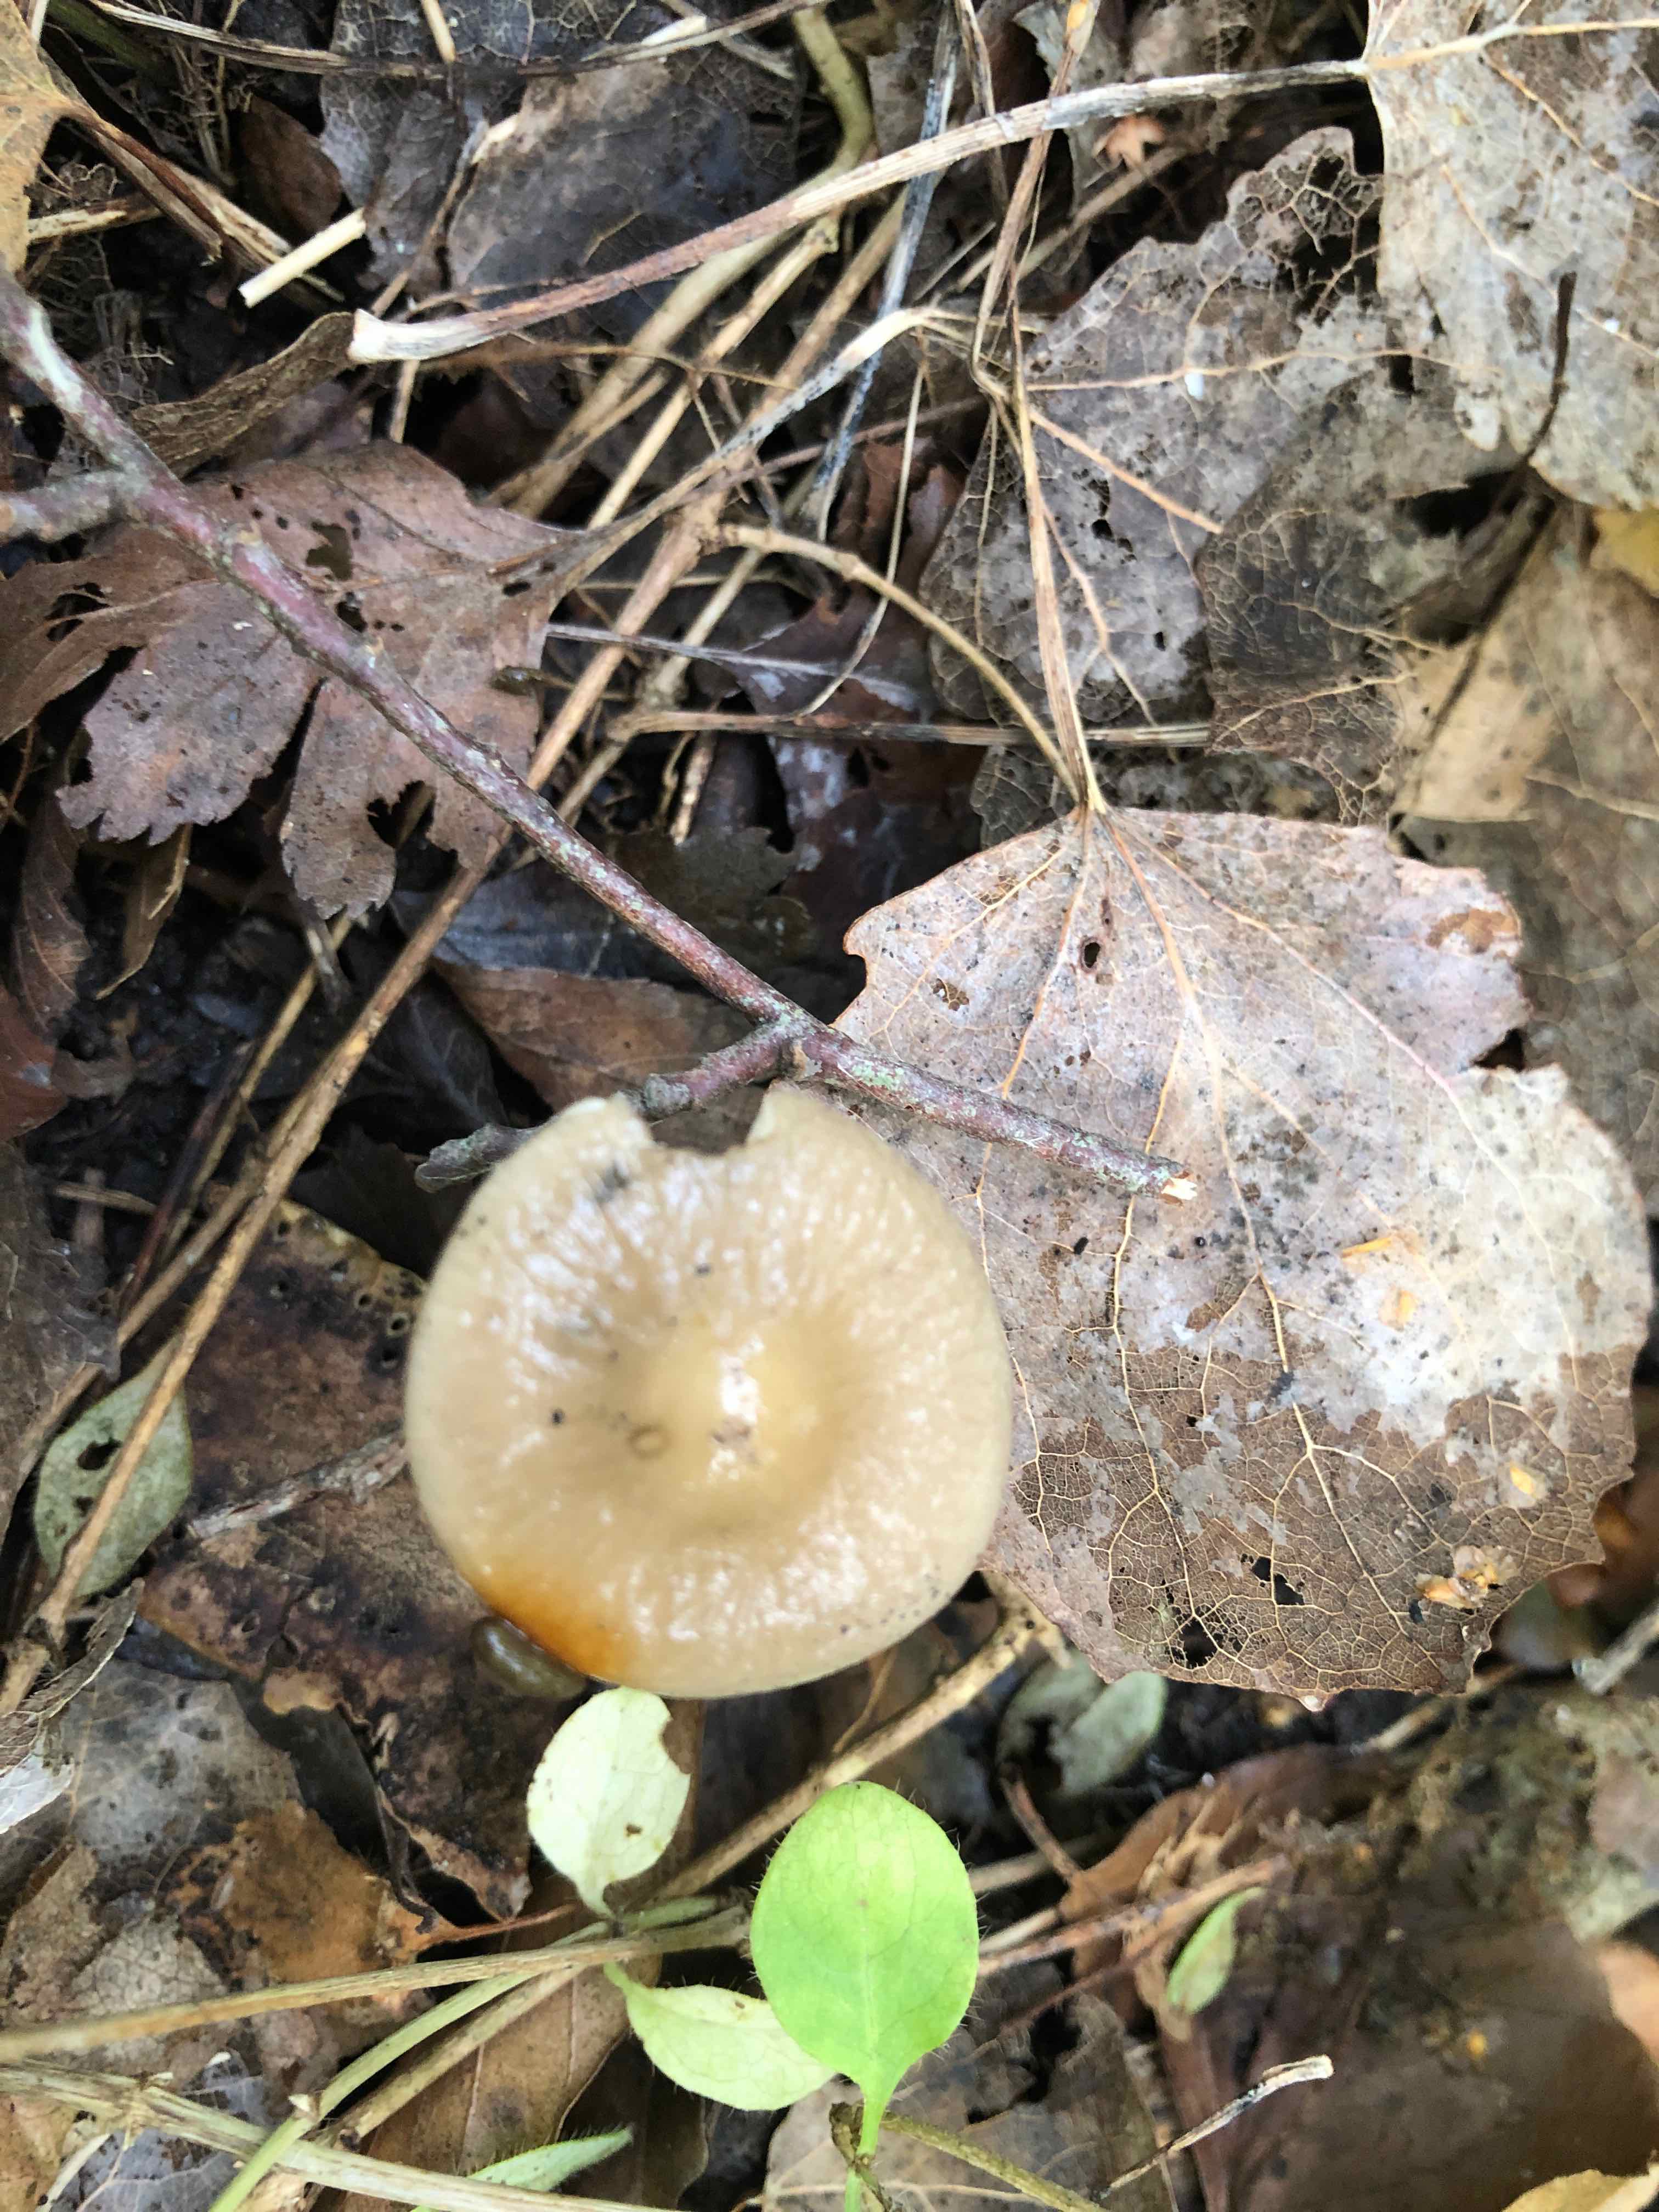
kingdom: Fungi
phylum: Basidiomycota
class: Agaricomycetes
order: Agaricales
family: Physalacriaceae
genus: Hymenopellis
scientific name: Hymenopellis radicata
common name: almindelig pælerodshat
